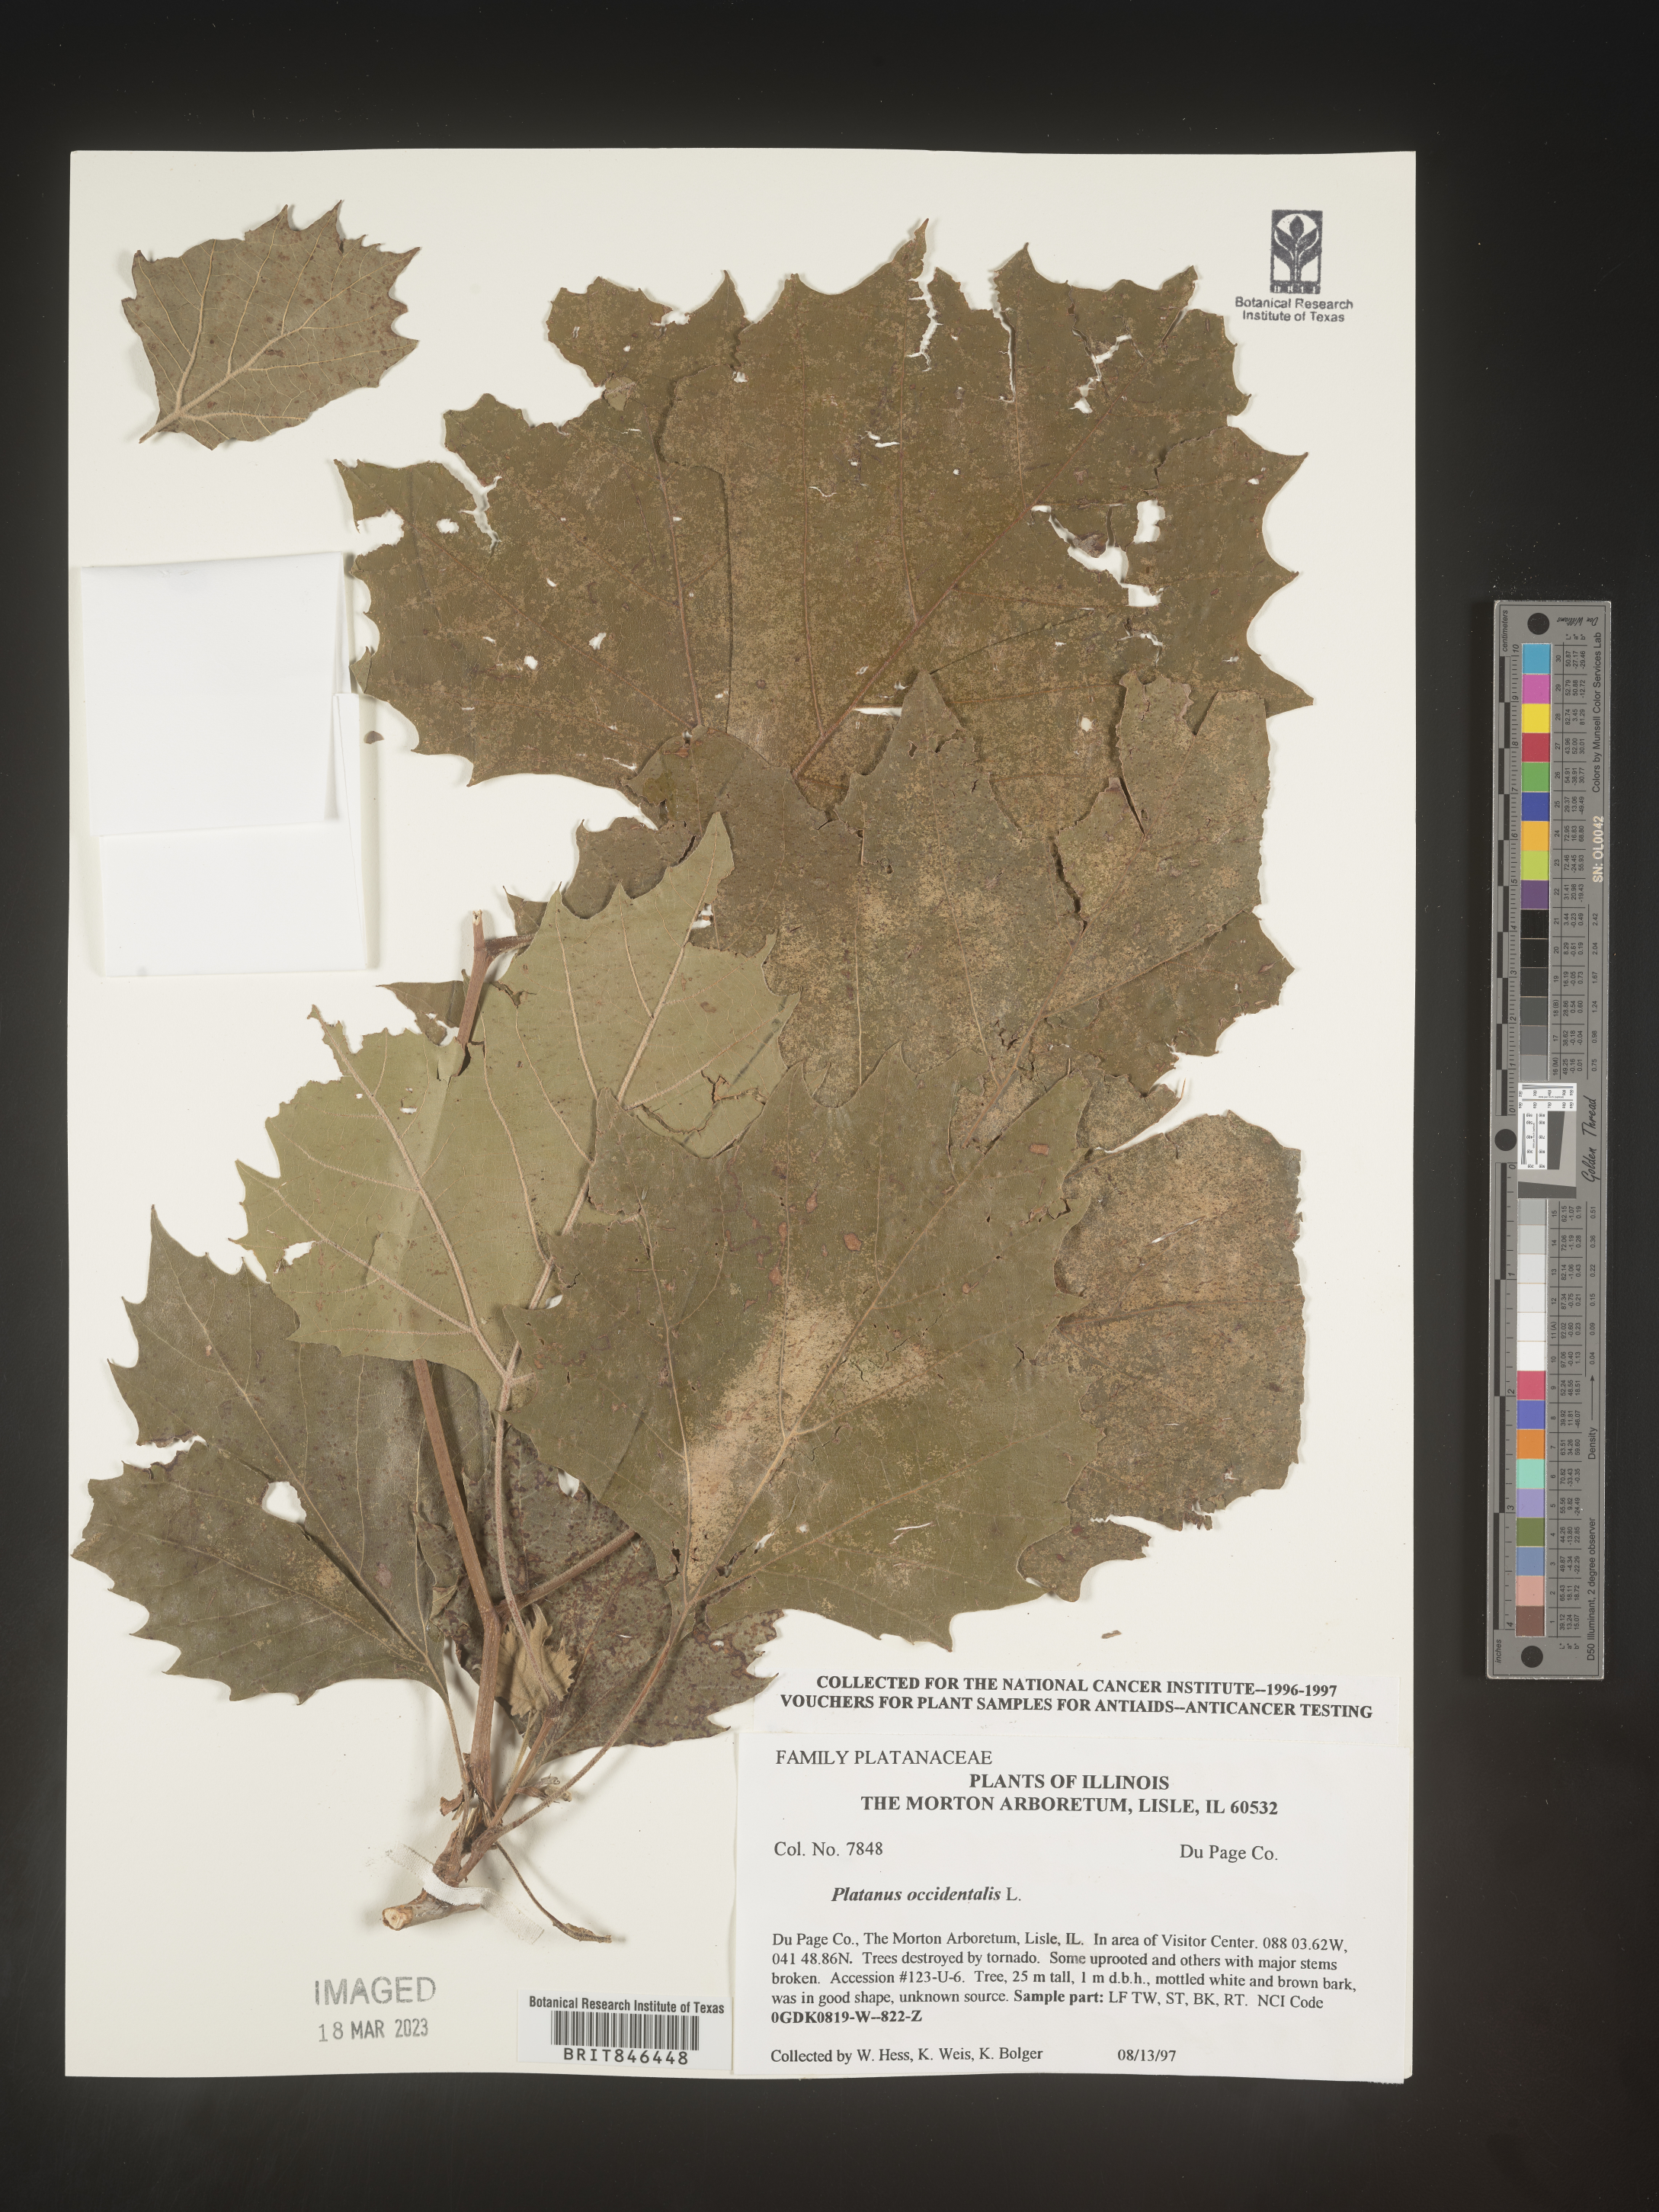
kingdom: Plantae
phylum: Tracheophyta
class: Magnoliopsida
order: Proteales
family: Platanaceae
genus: Platanus
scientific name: Platanus occidentalis
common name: American sycamore
